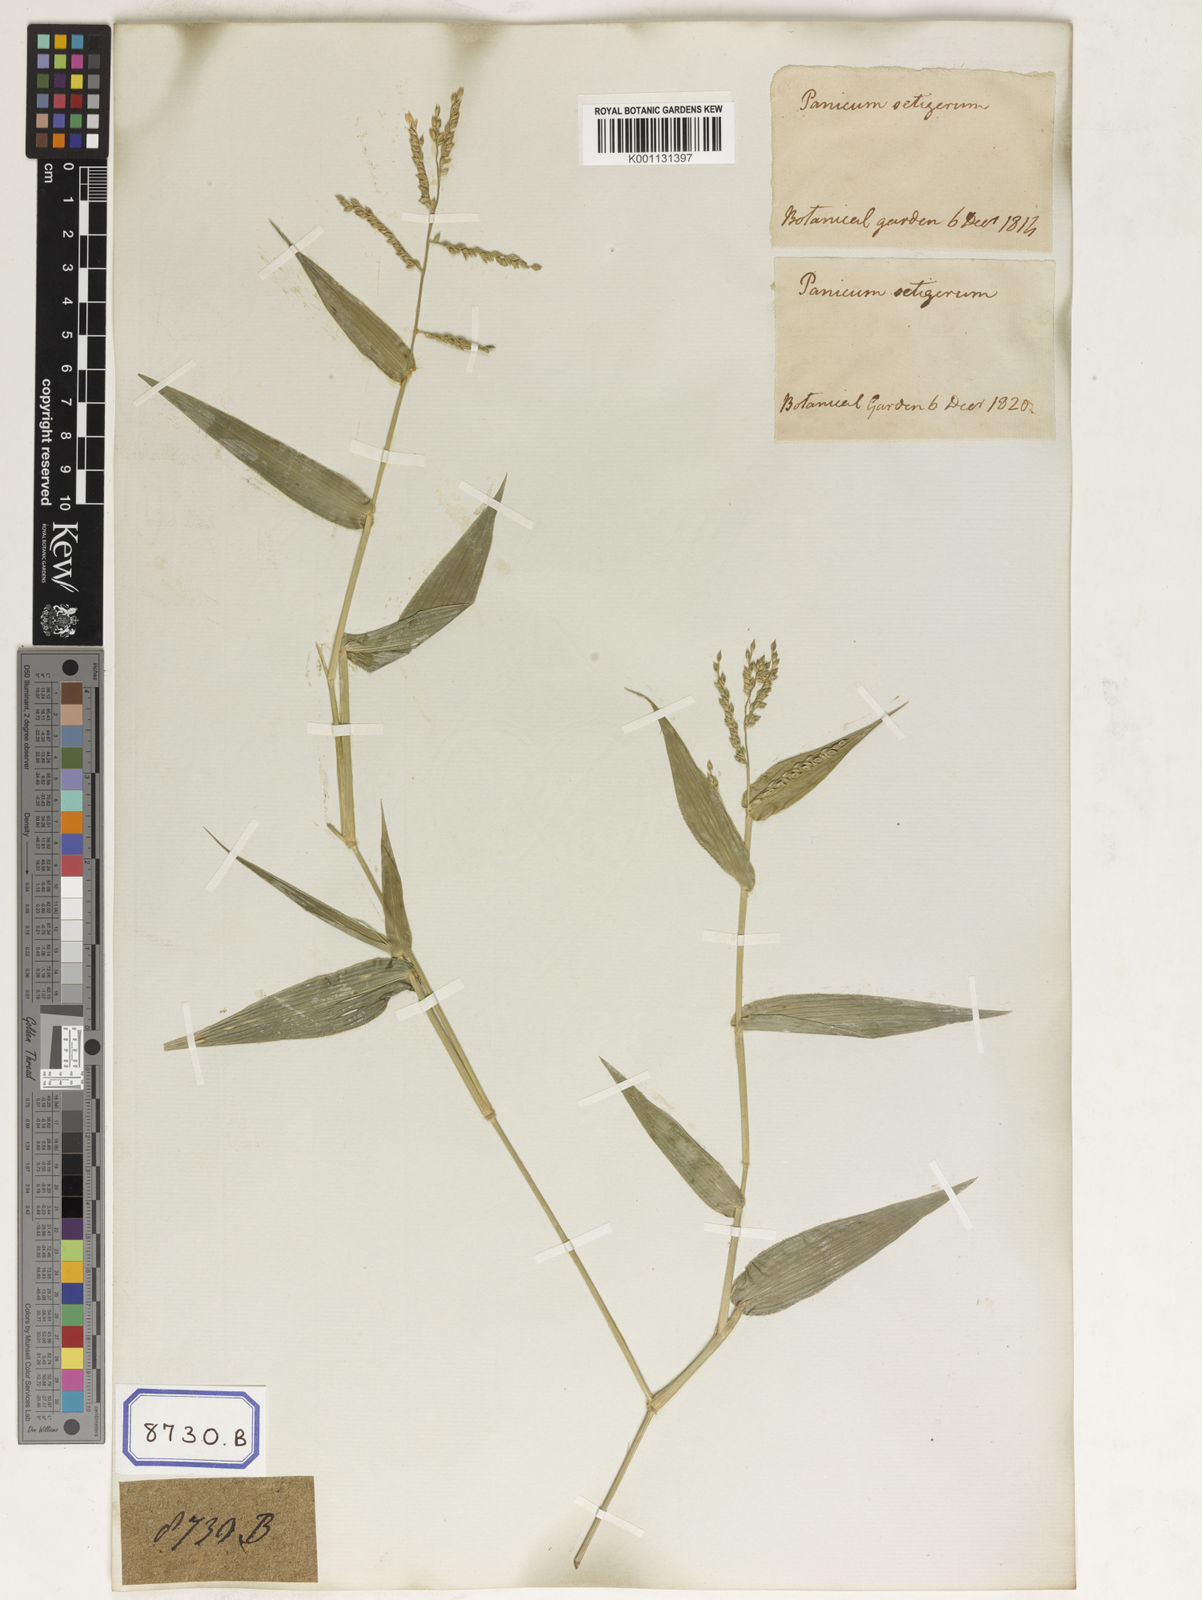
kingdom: Plantae
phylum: Tracheophyta
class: Liliopsida
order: Poales
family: Poaceae
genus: Panicum
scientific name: Panicum
